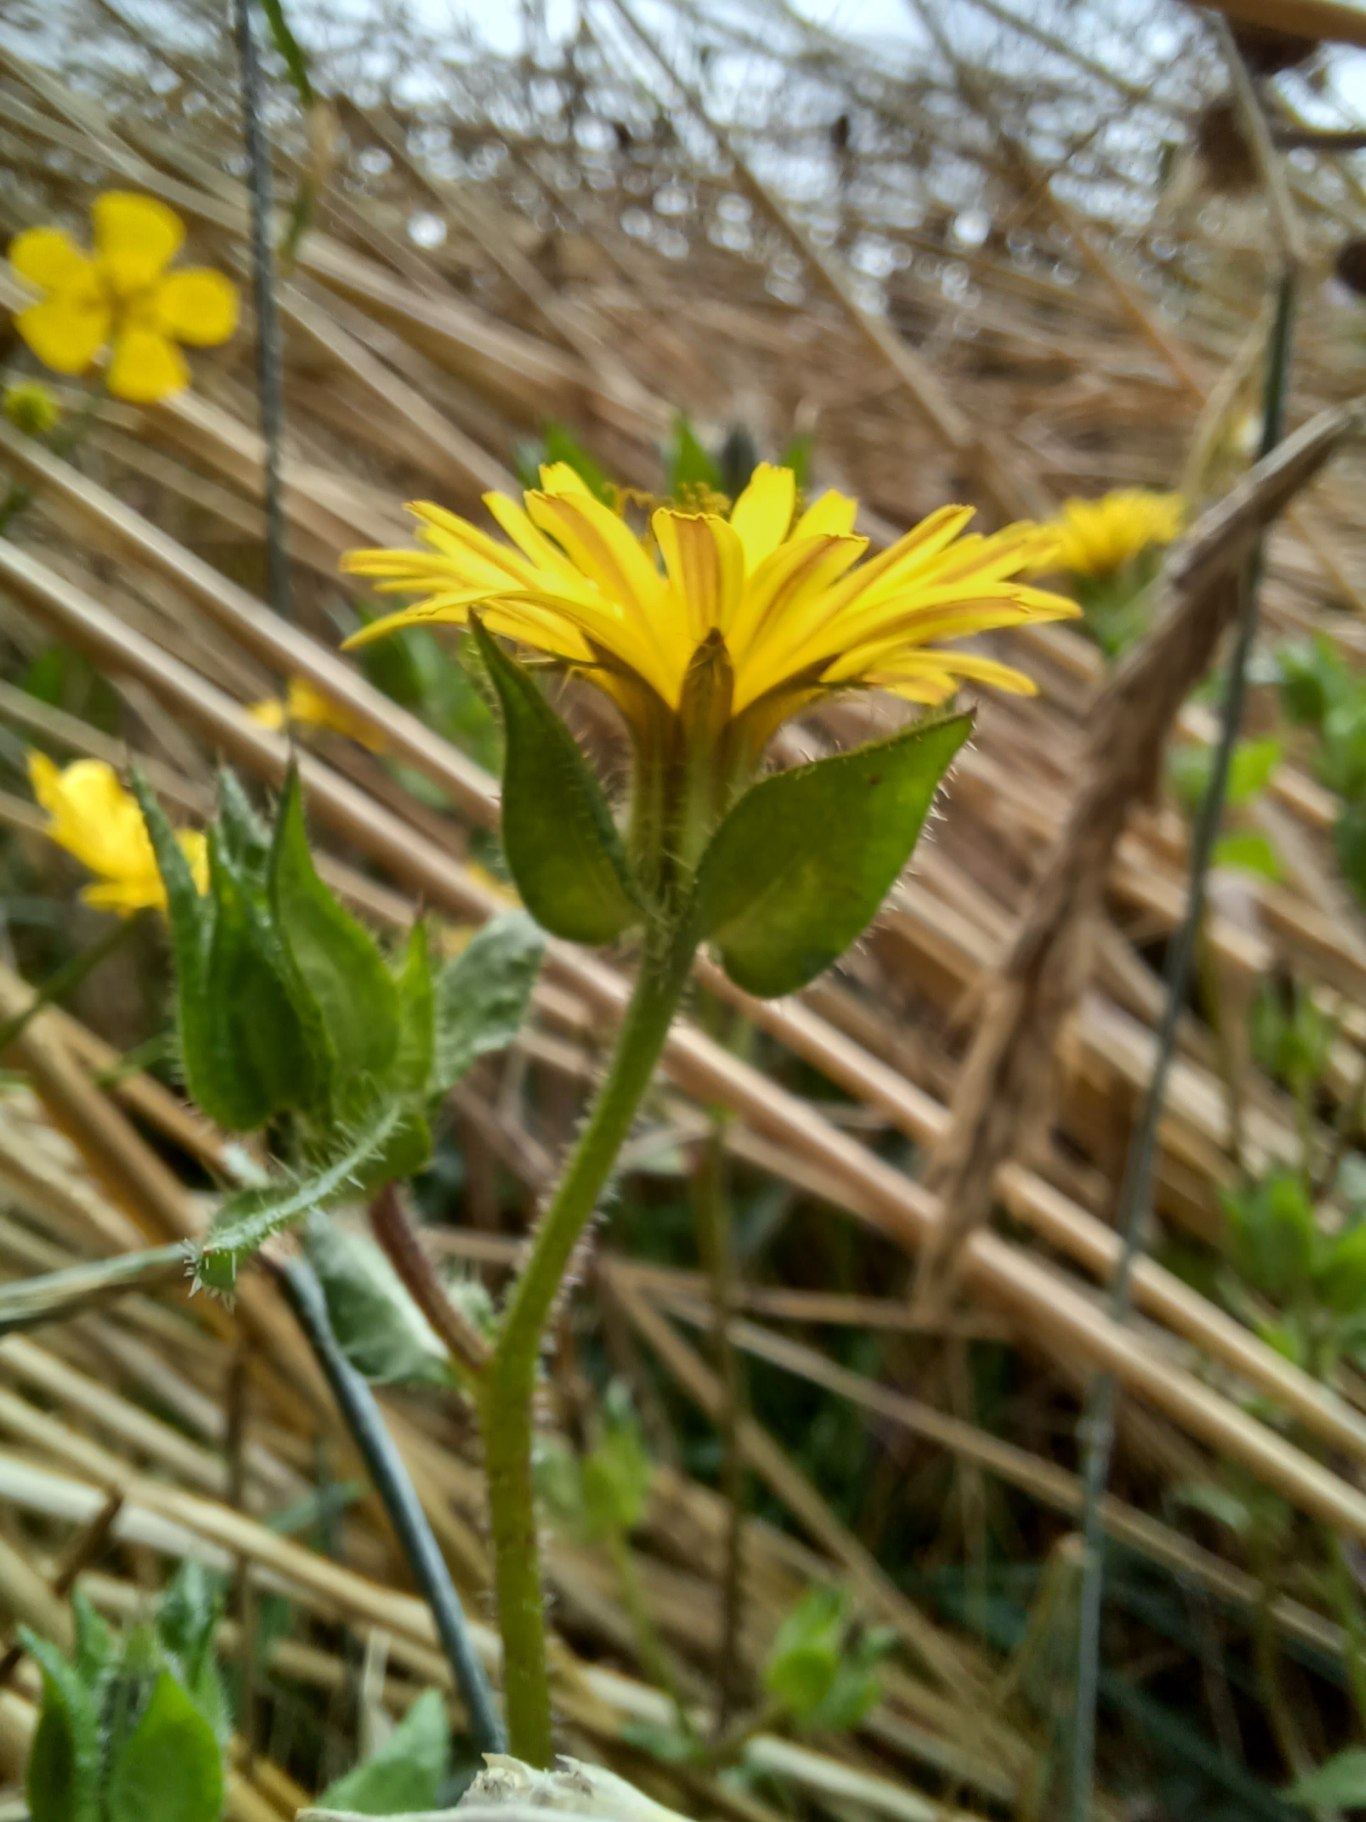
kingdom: Plantae
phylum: Tracheophyta
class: Magnoliopsida
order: Asterales
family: Asteraceae
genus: Helminthotheca
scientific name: Helminthotheca echioides
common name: Vingekurv
